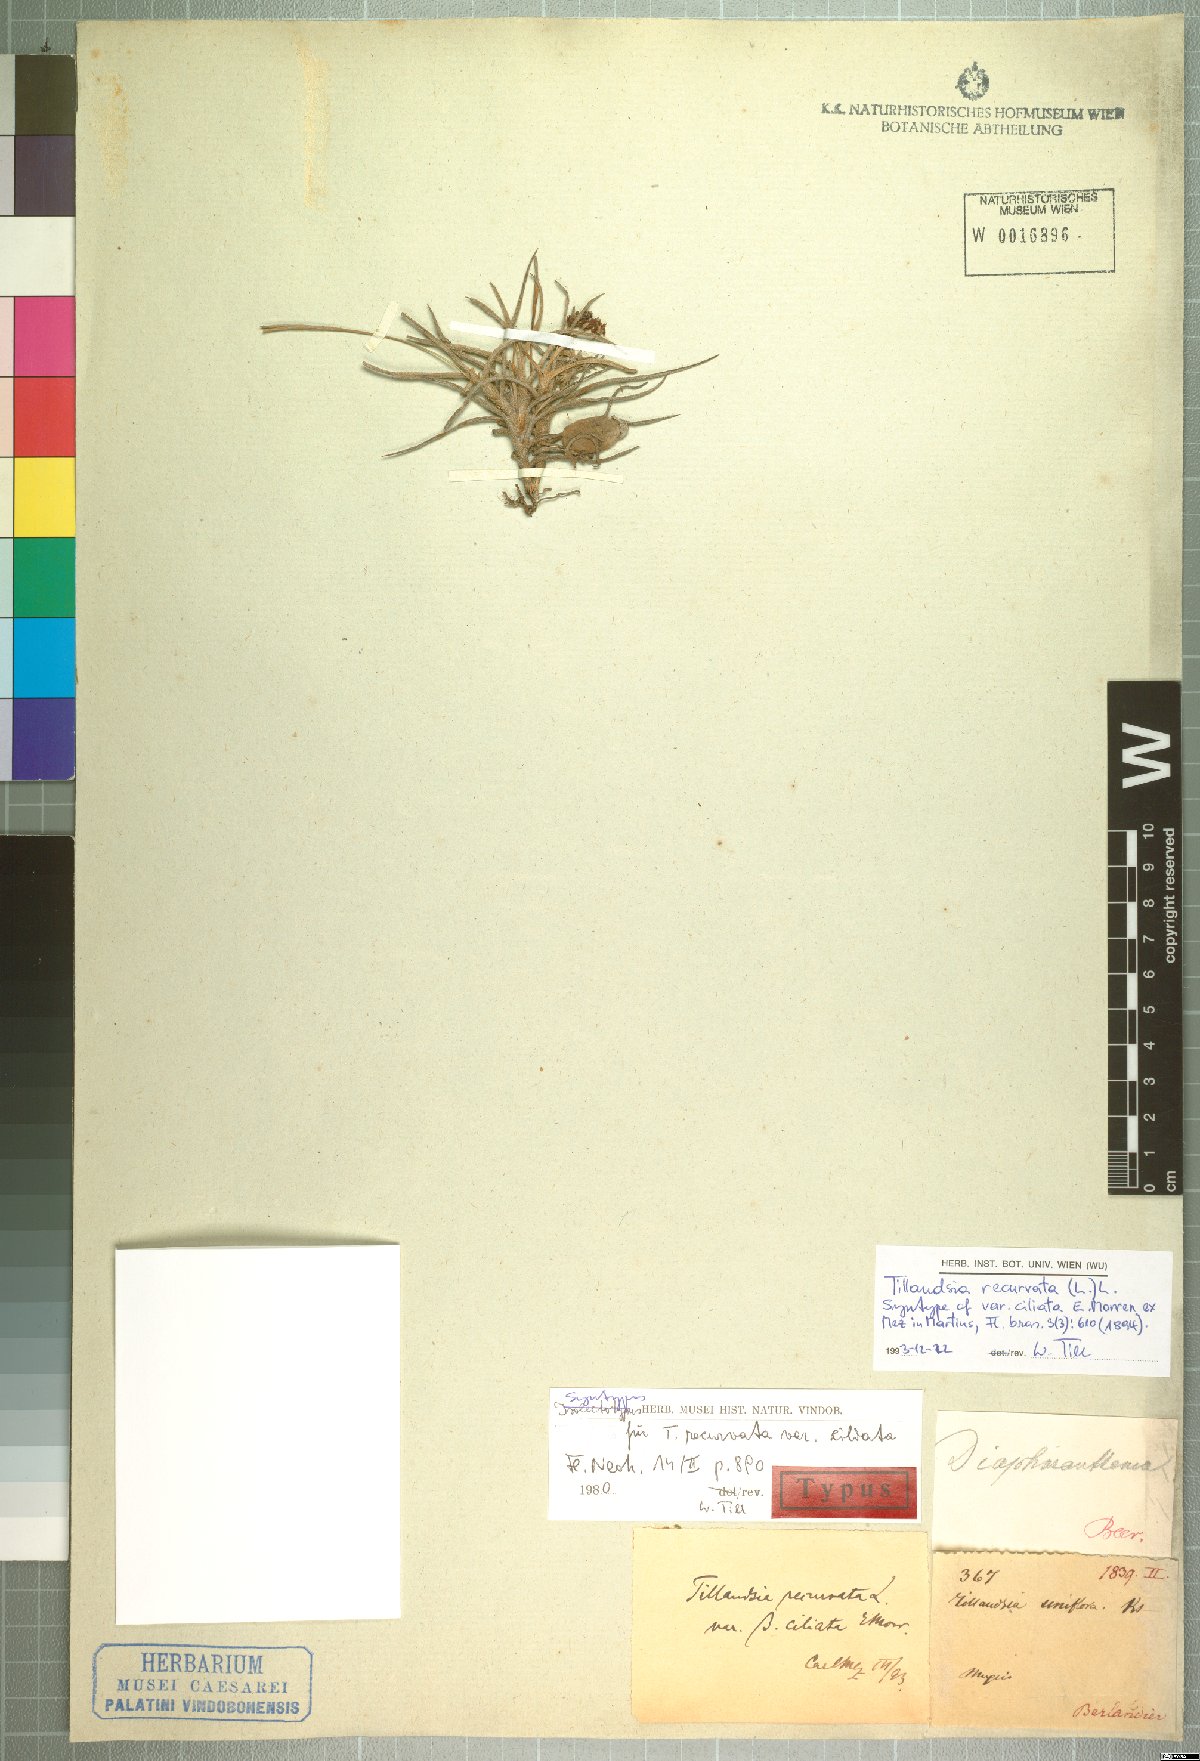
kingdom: Plantae
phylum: Tracheophyta
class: Liliopsida
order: Poales
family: Bromeliaceae
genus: Tillandsia
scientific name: Tillandsia recurvata
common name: Small ballmoss
